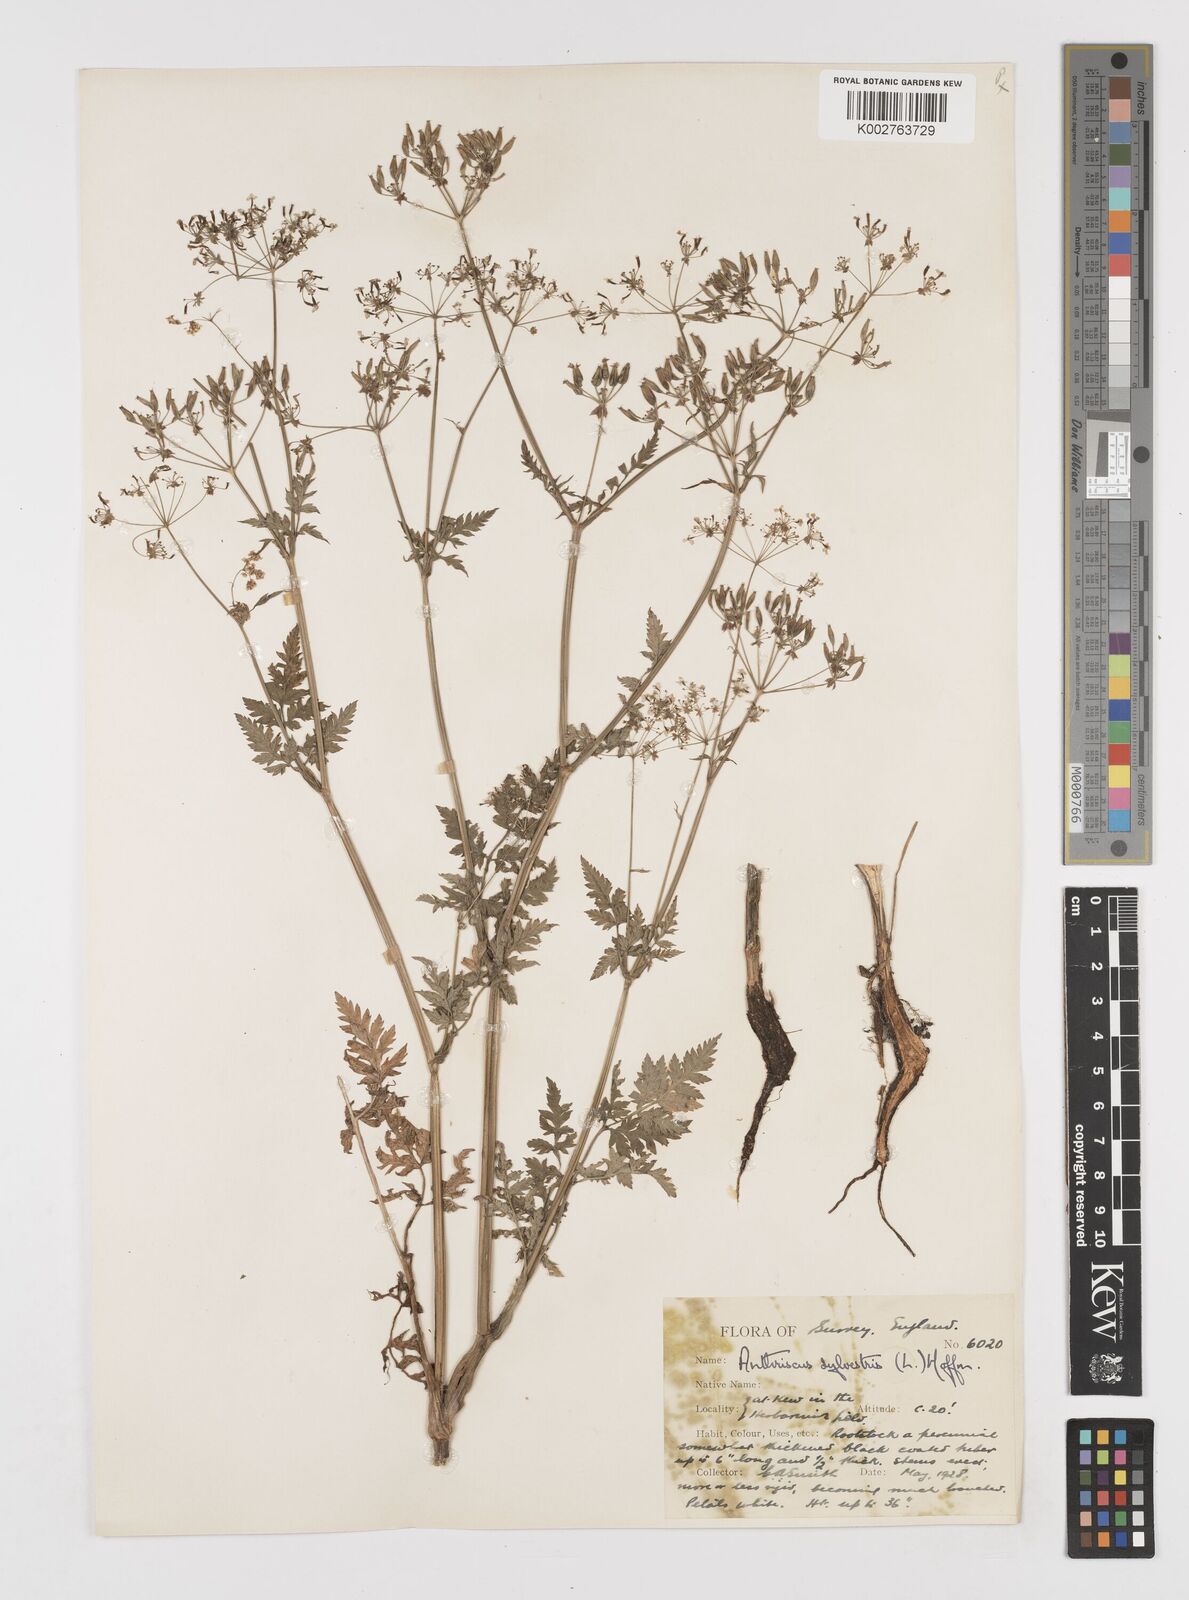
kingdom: Plantae
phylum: Tracheophyta
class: Magnoliopsida
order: Apiales
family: Apiaceae
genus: Anthriscus
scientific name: Anthriscus sylvestris
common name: Cow parsley
